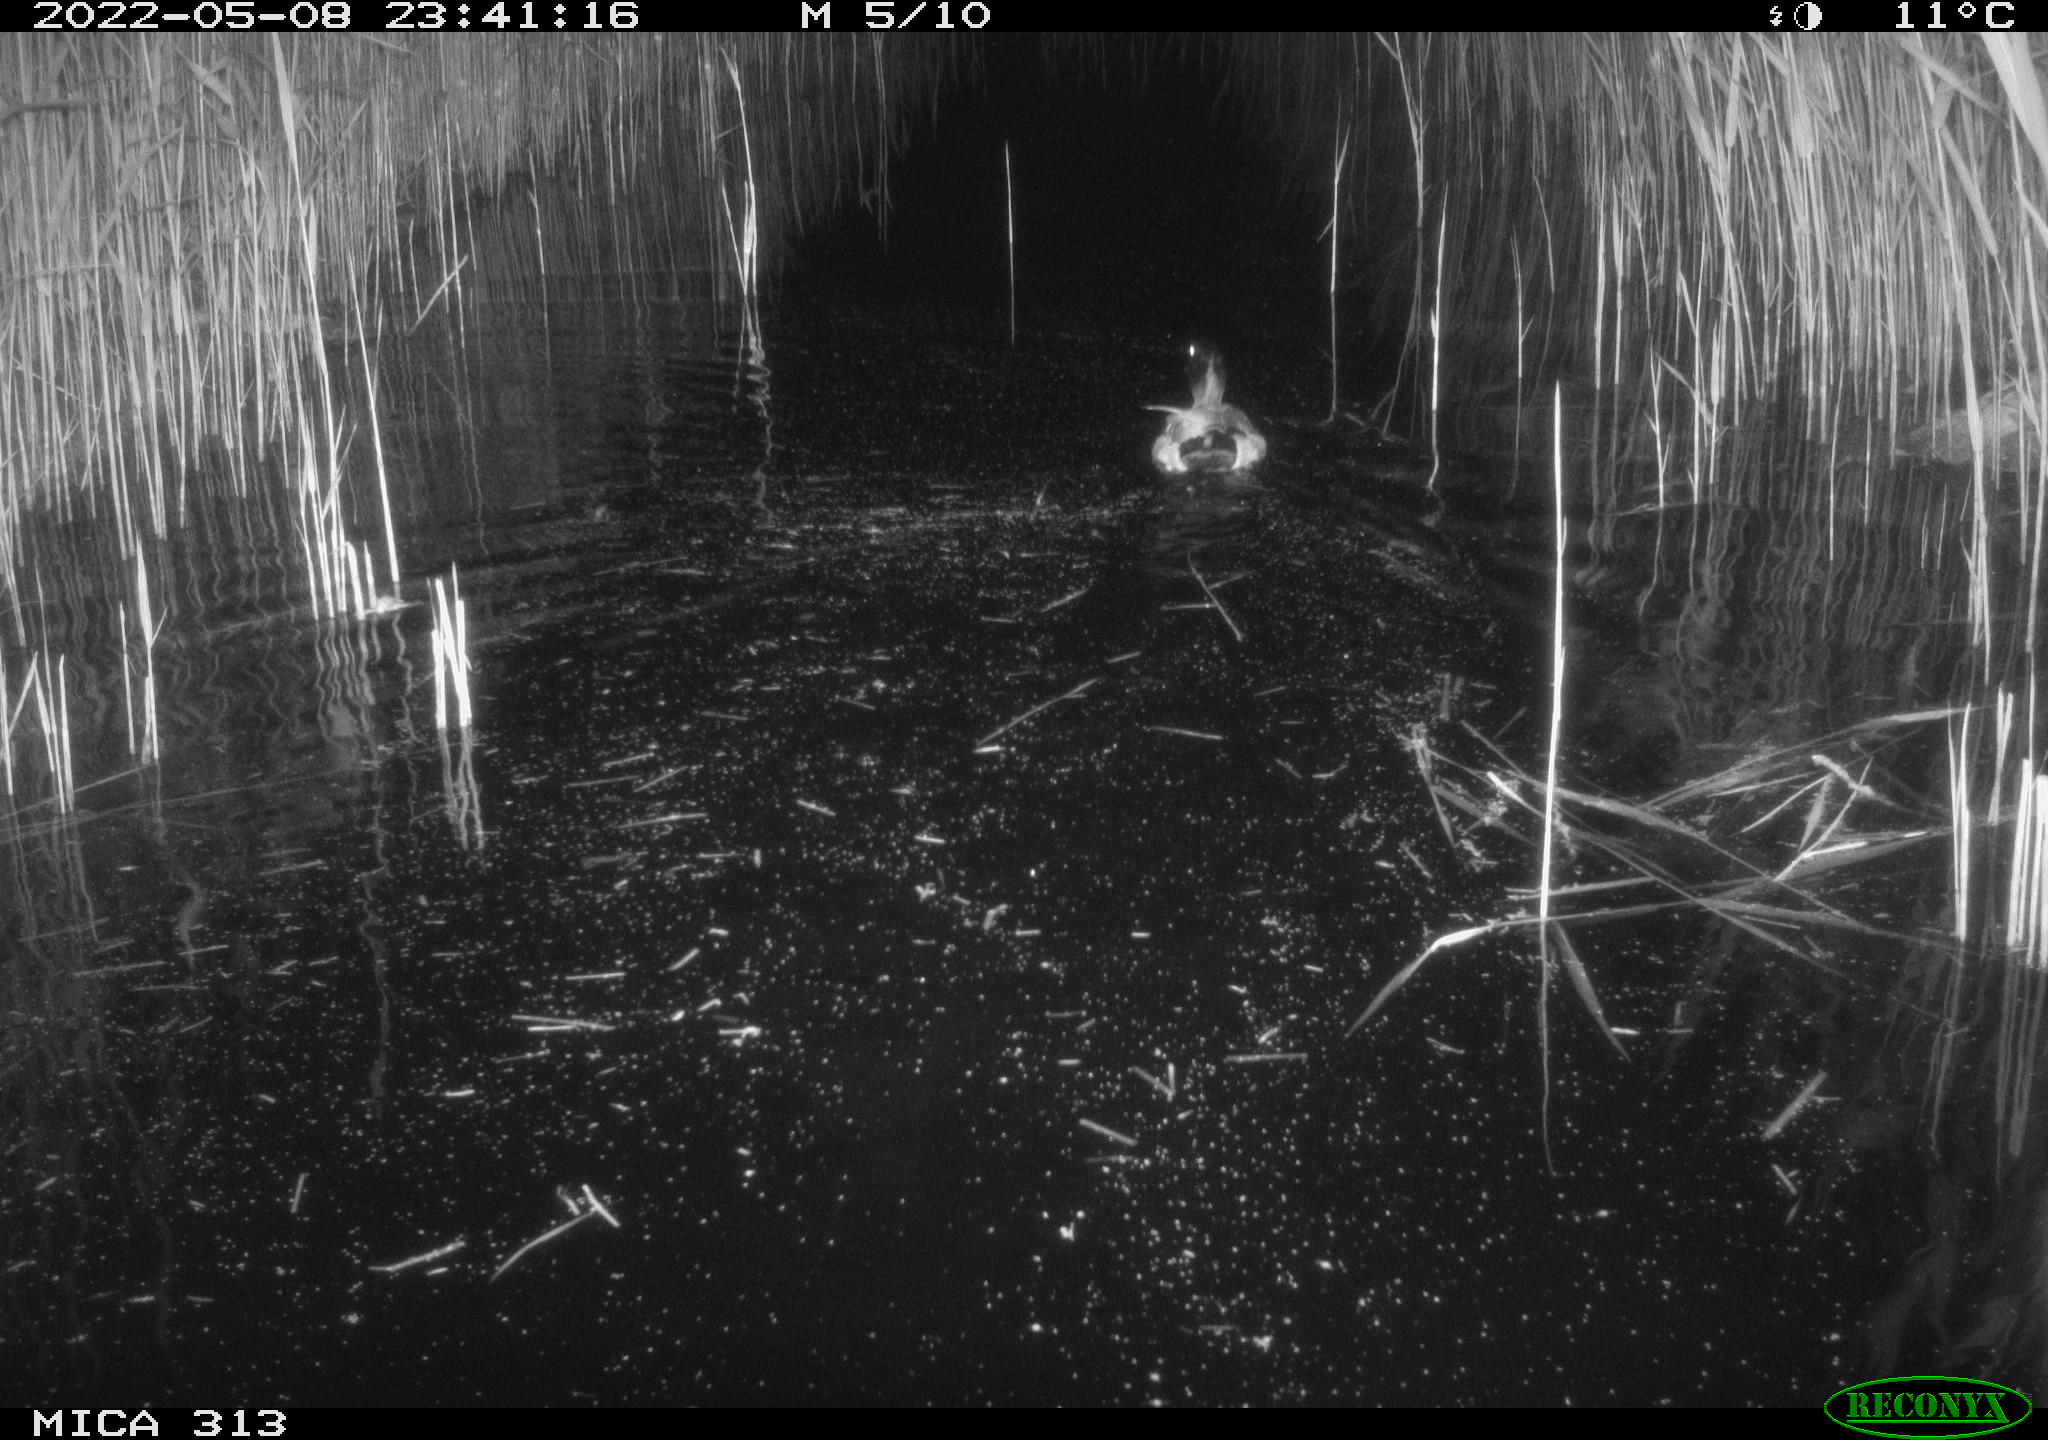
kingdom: Animalia
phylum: Chordata
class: Aves
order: Anseriformes
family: Anatidae
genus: Anas
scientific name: Anas platyrhynchos
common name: Mallard
